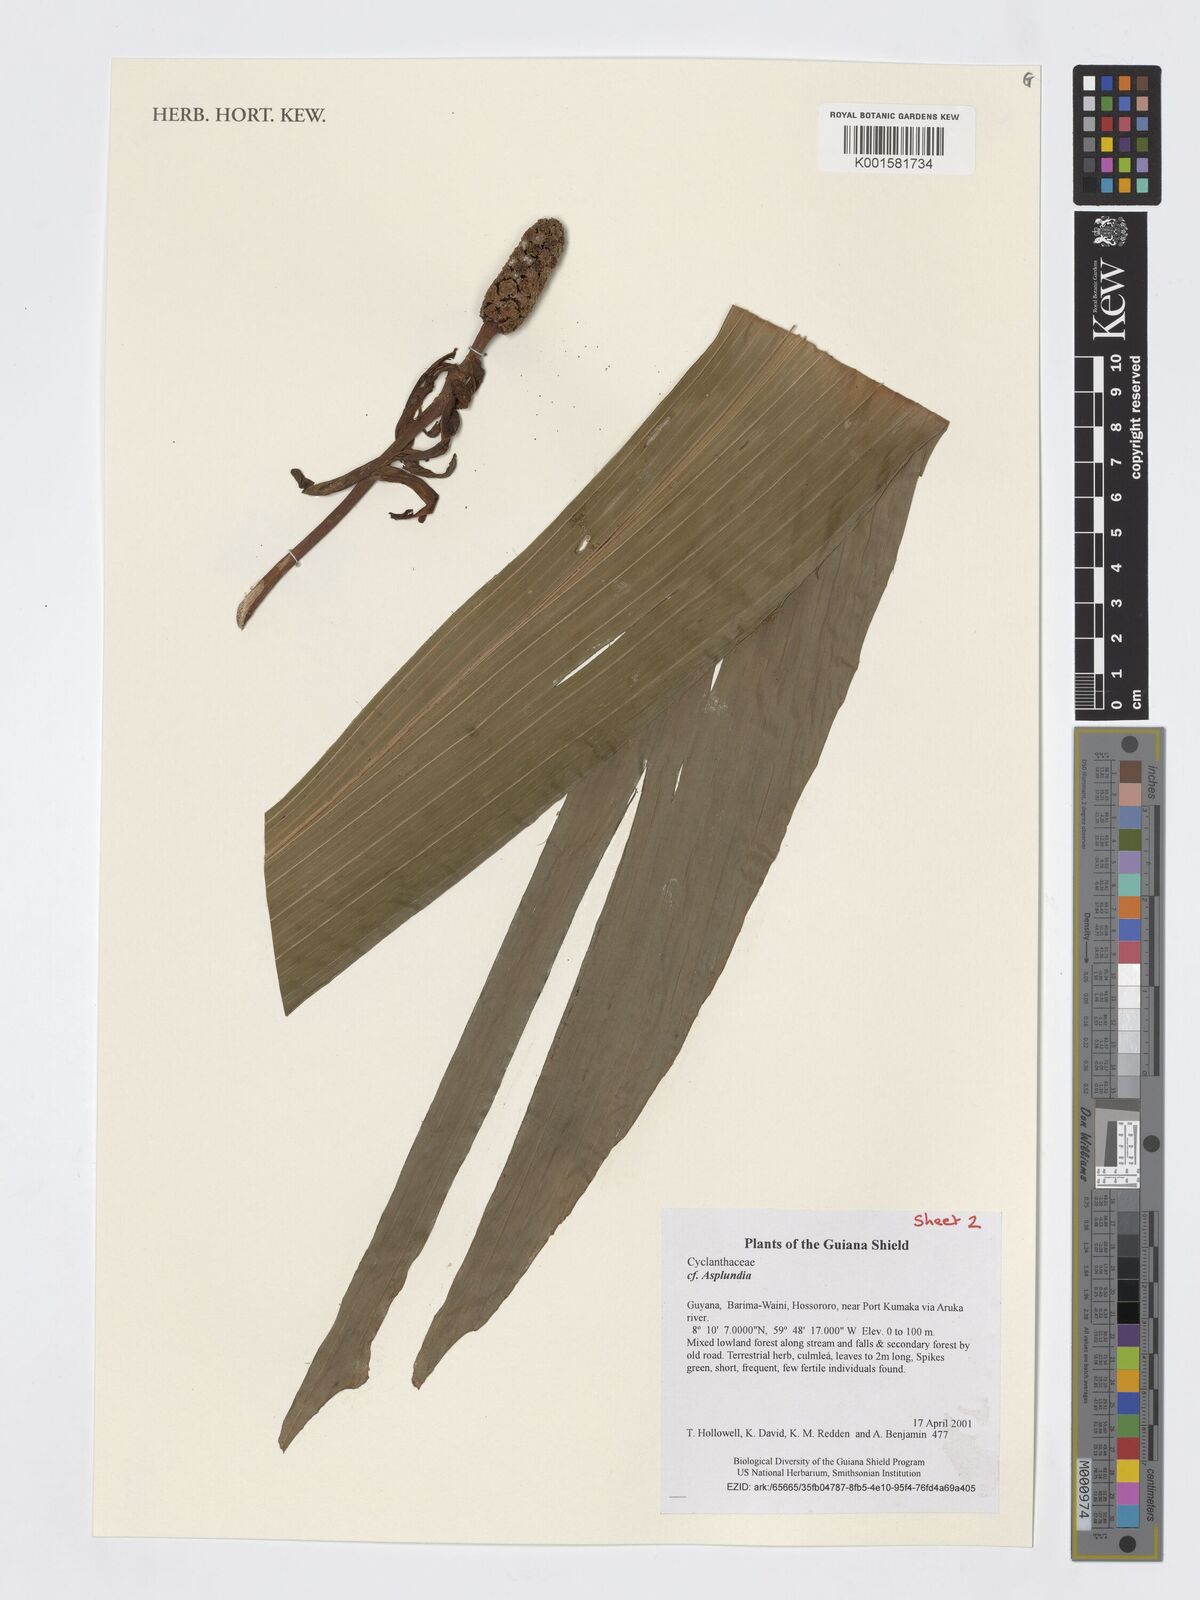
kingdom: Plantae
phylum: Tracheophyta
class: Liliopsida
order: Pandanales
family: Cyclanthaceae
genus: Asplundia
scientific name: Asplundia
